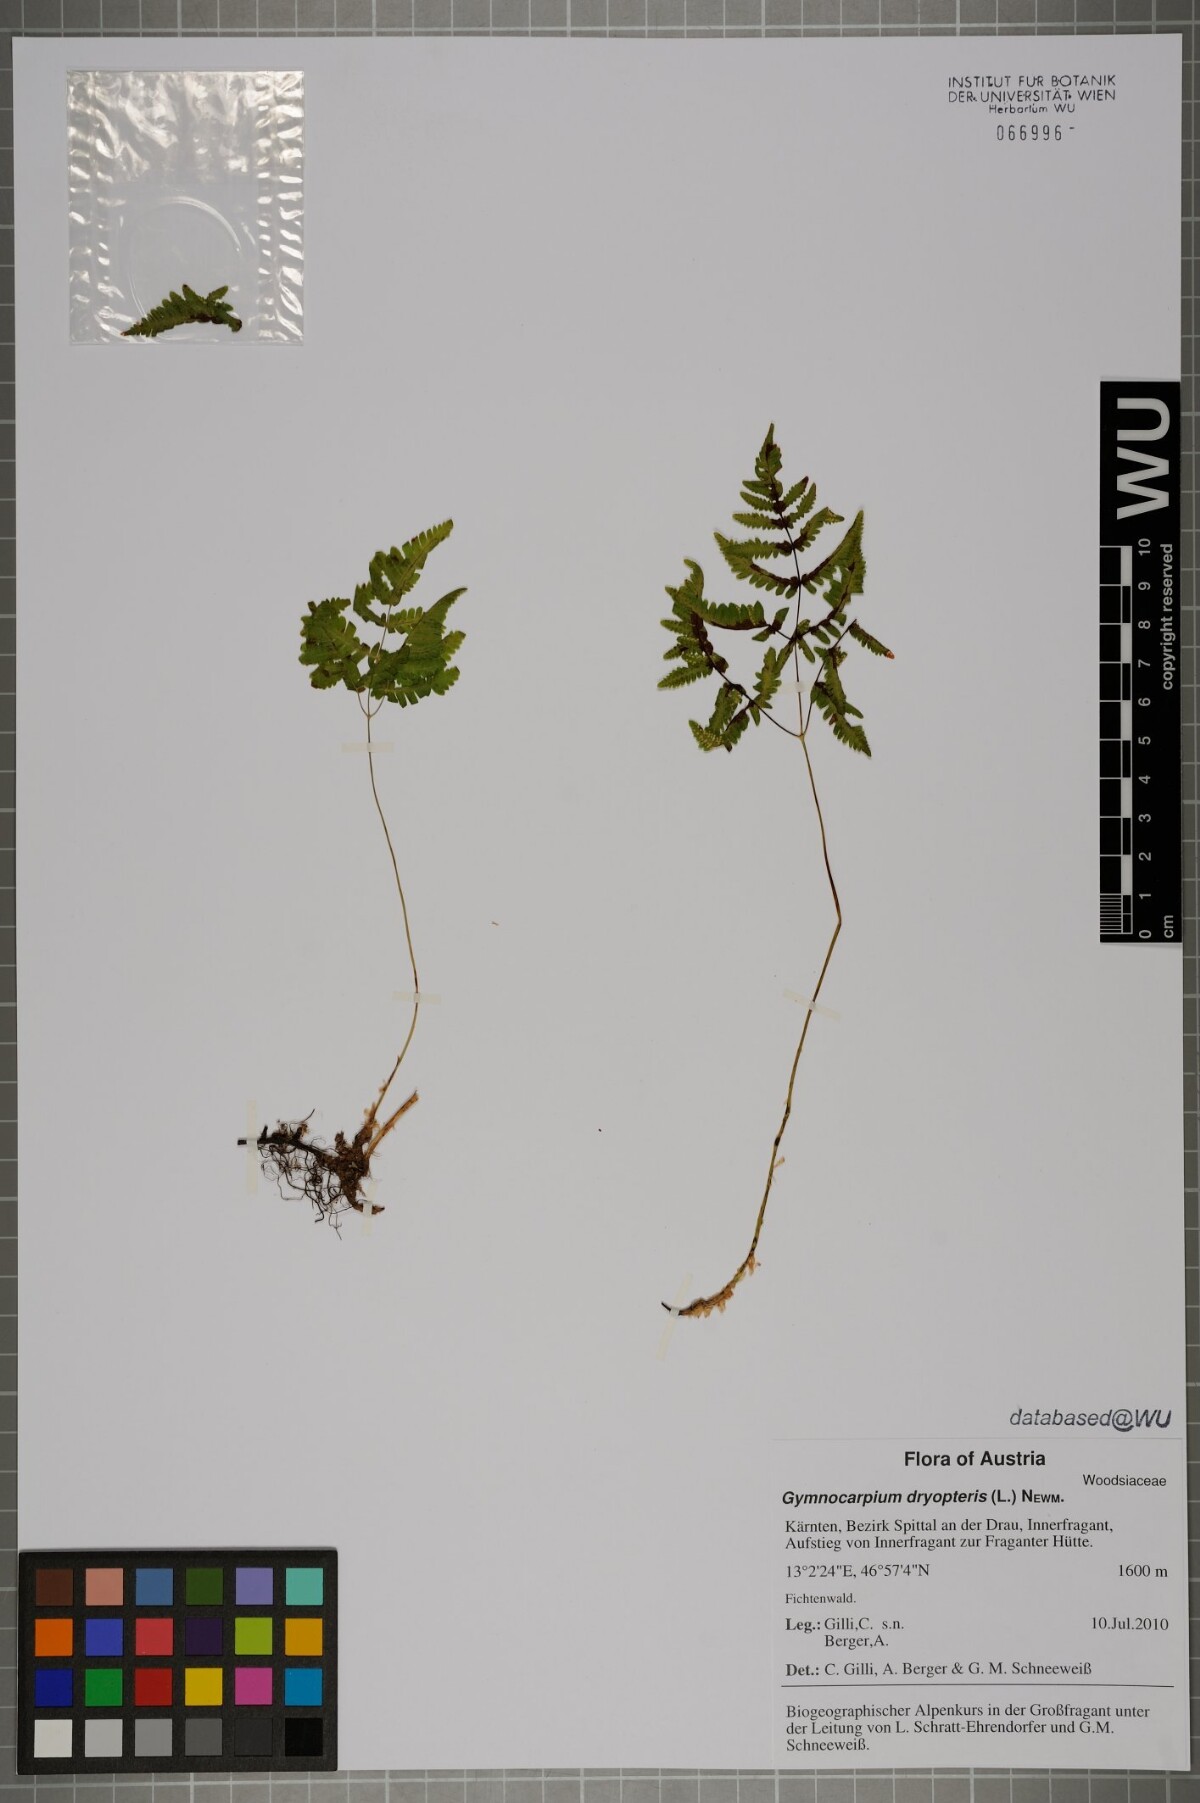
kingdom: Plantae
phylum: Tracheophyta
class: Polypodiopsida
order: Polypodiales
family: Cystopteridaceae
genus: Gymnocarpium
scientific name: Gymnocarpium dryopteris
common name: Oak fern
